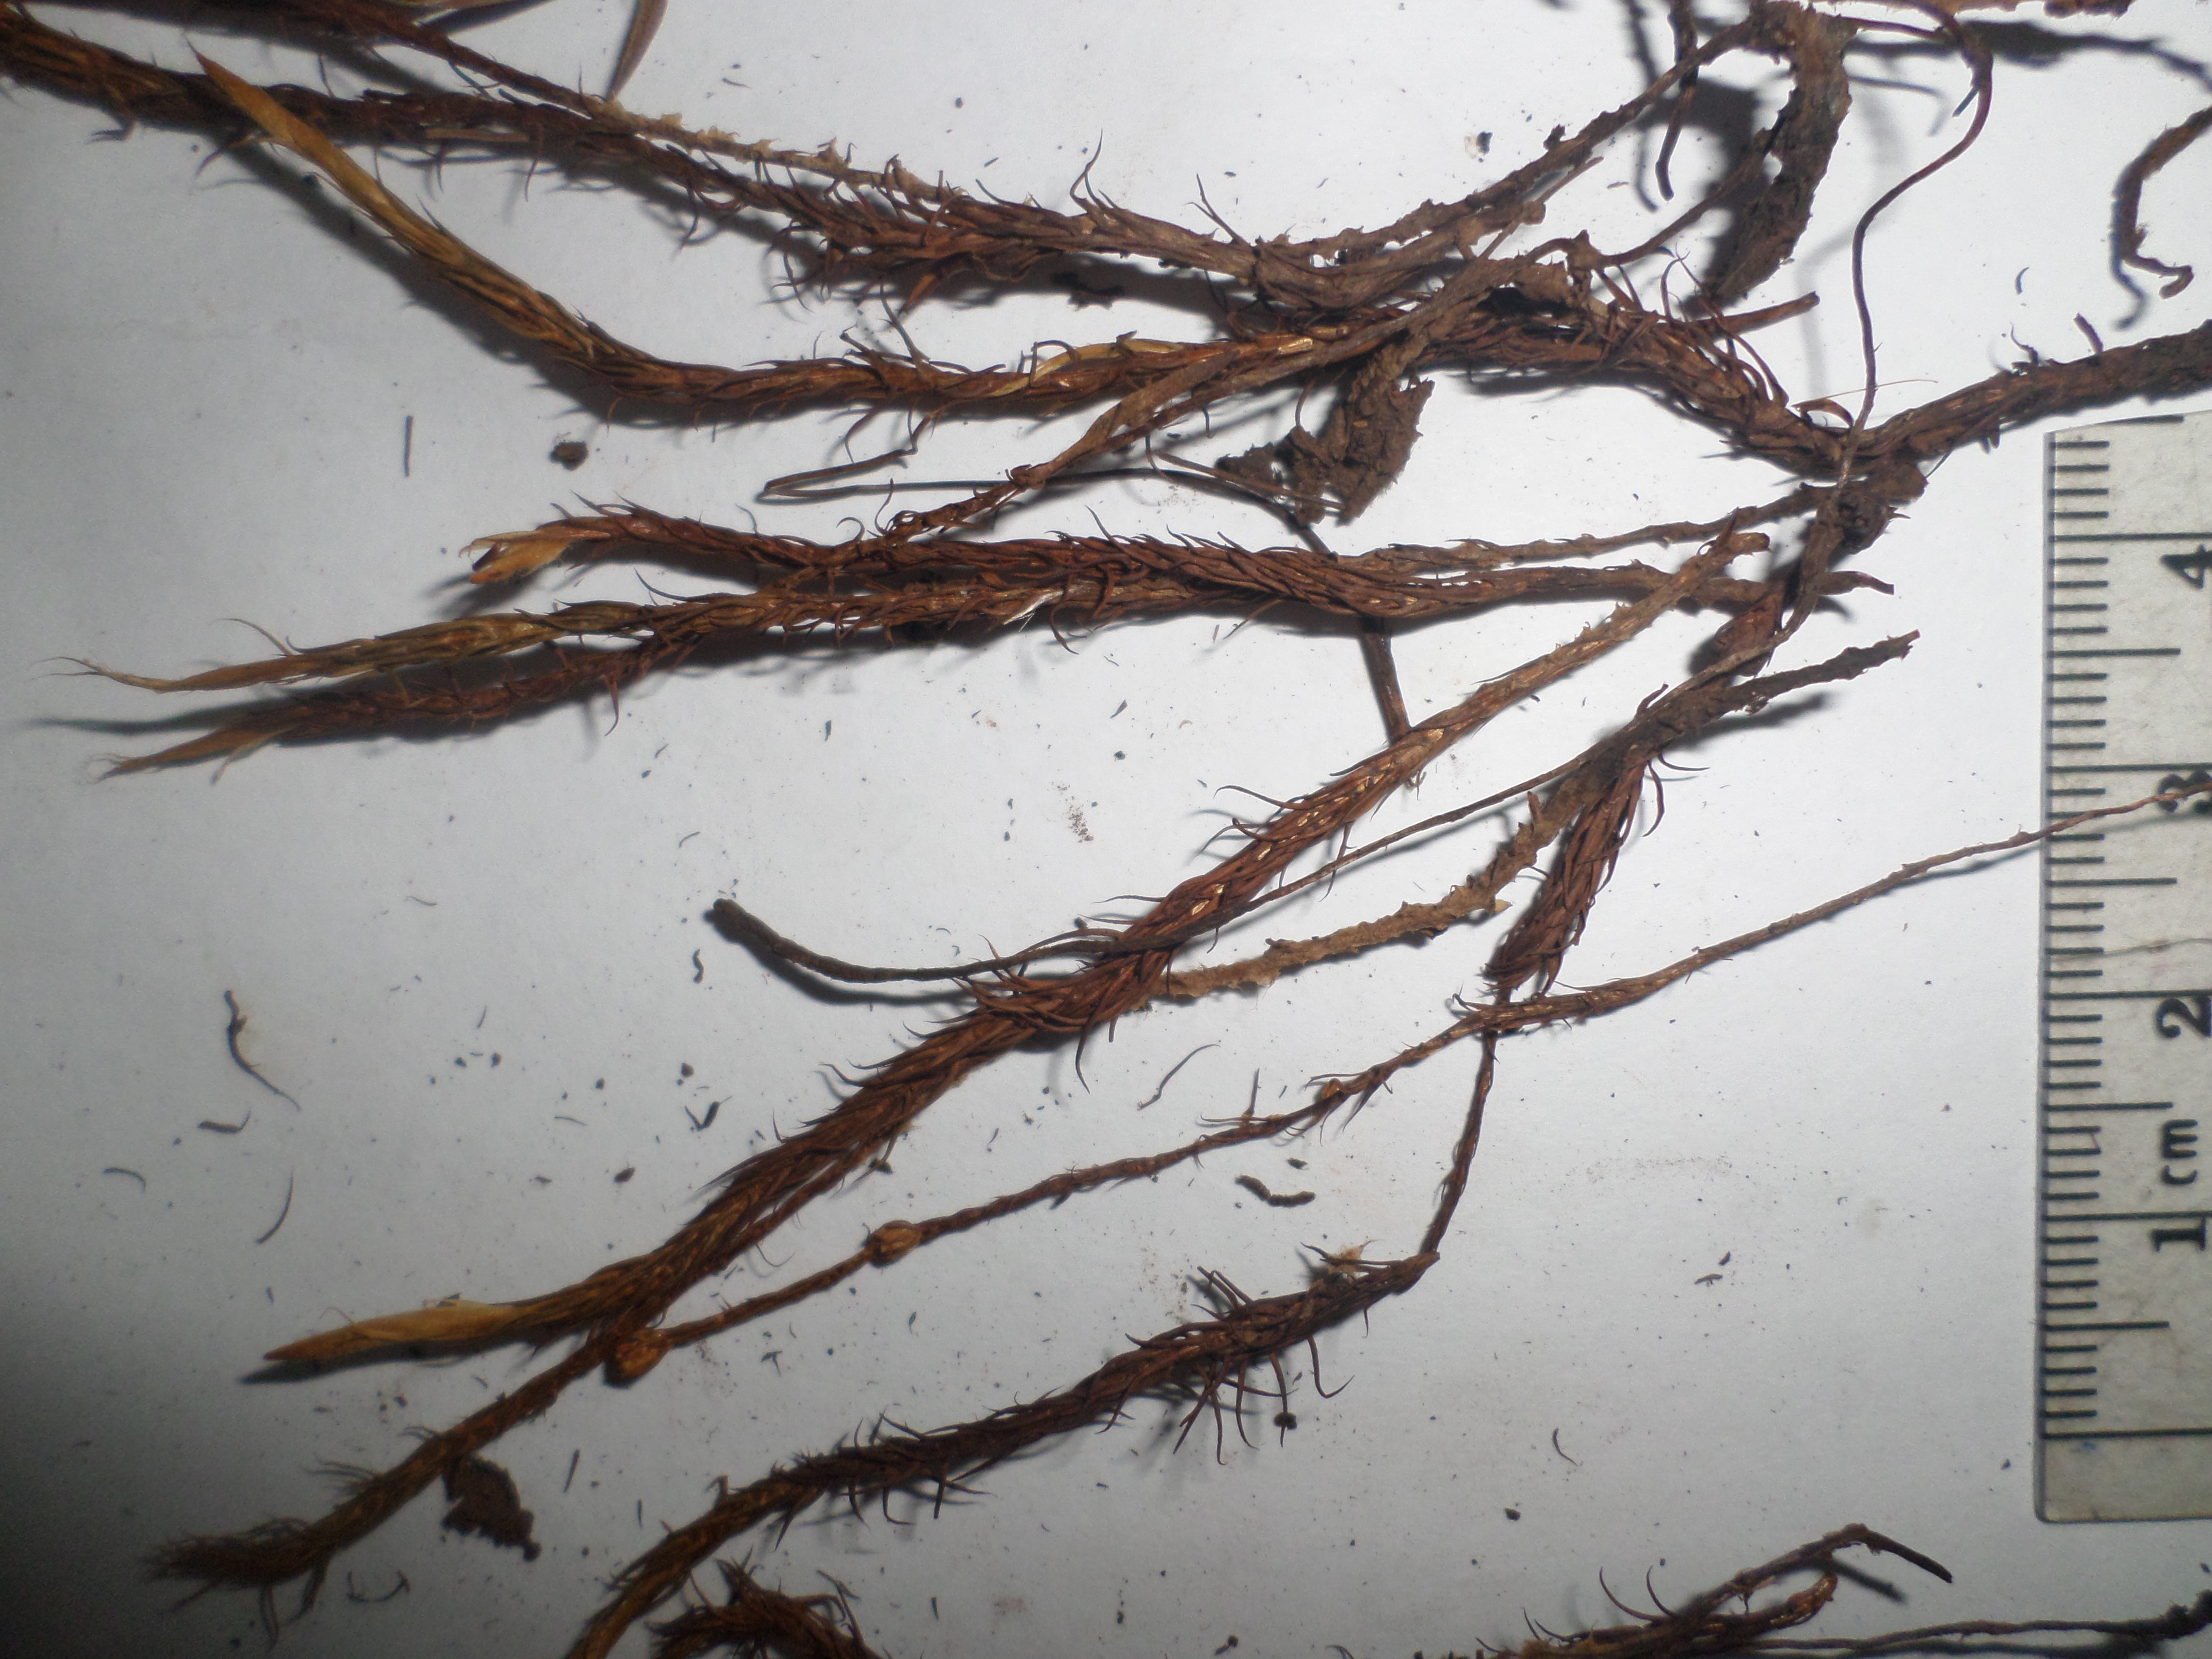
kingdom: Plantae
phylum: Bryophyta
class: Polytrichopsida
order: Polytrichales
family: Polytrichaceae
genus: Polytrichum
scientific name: Polytrichum commune
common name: Common haircap
